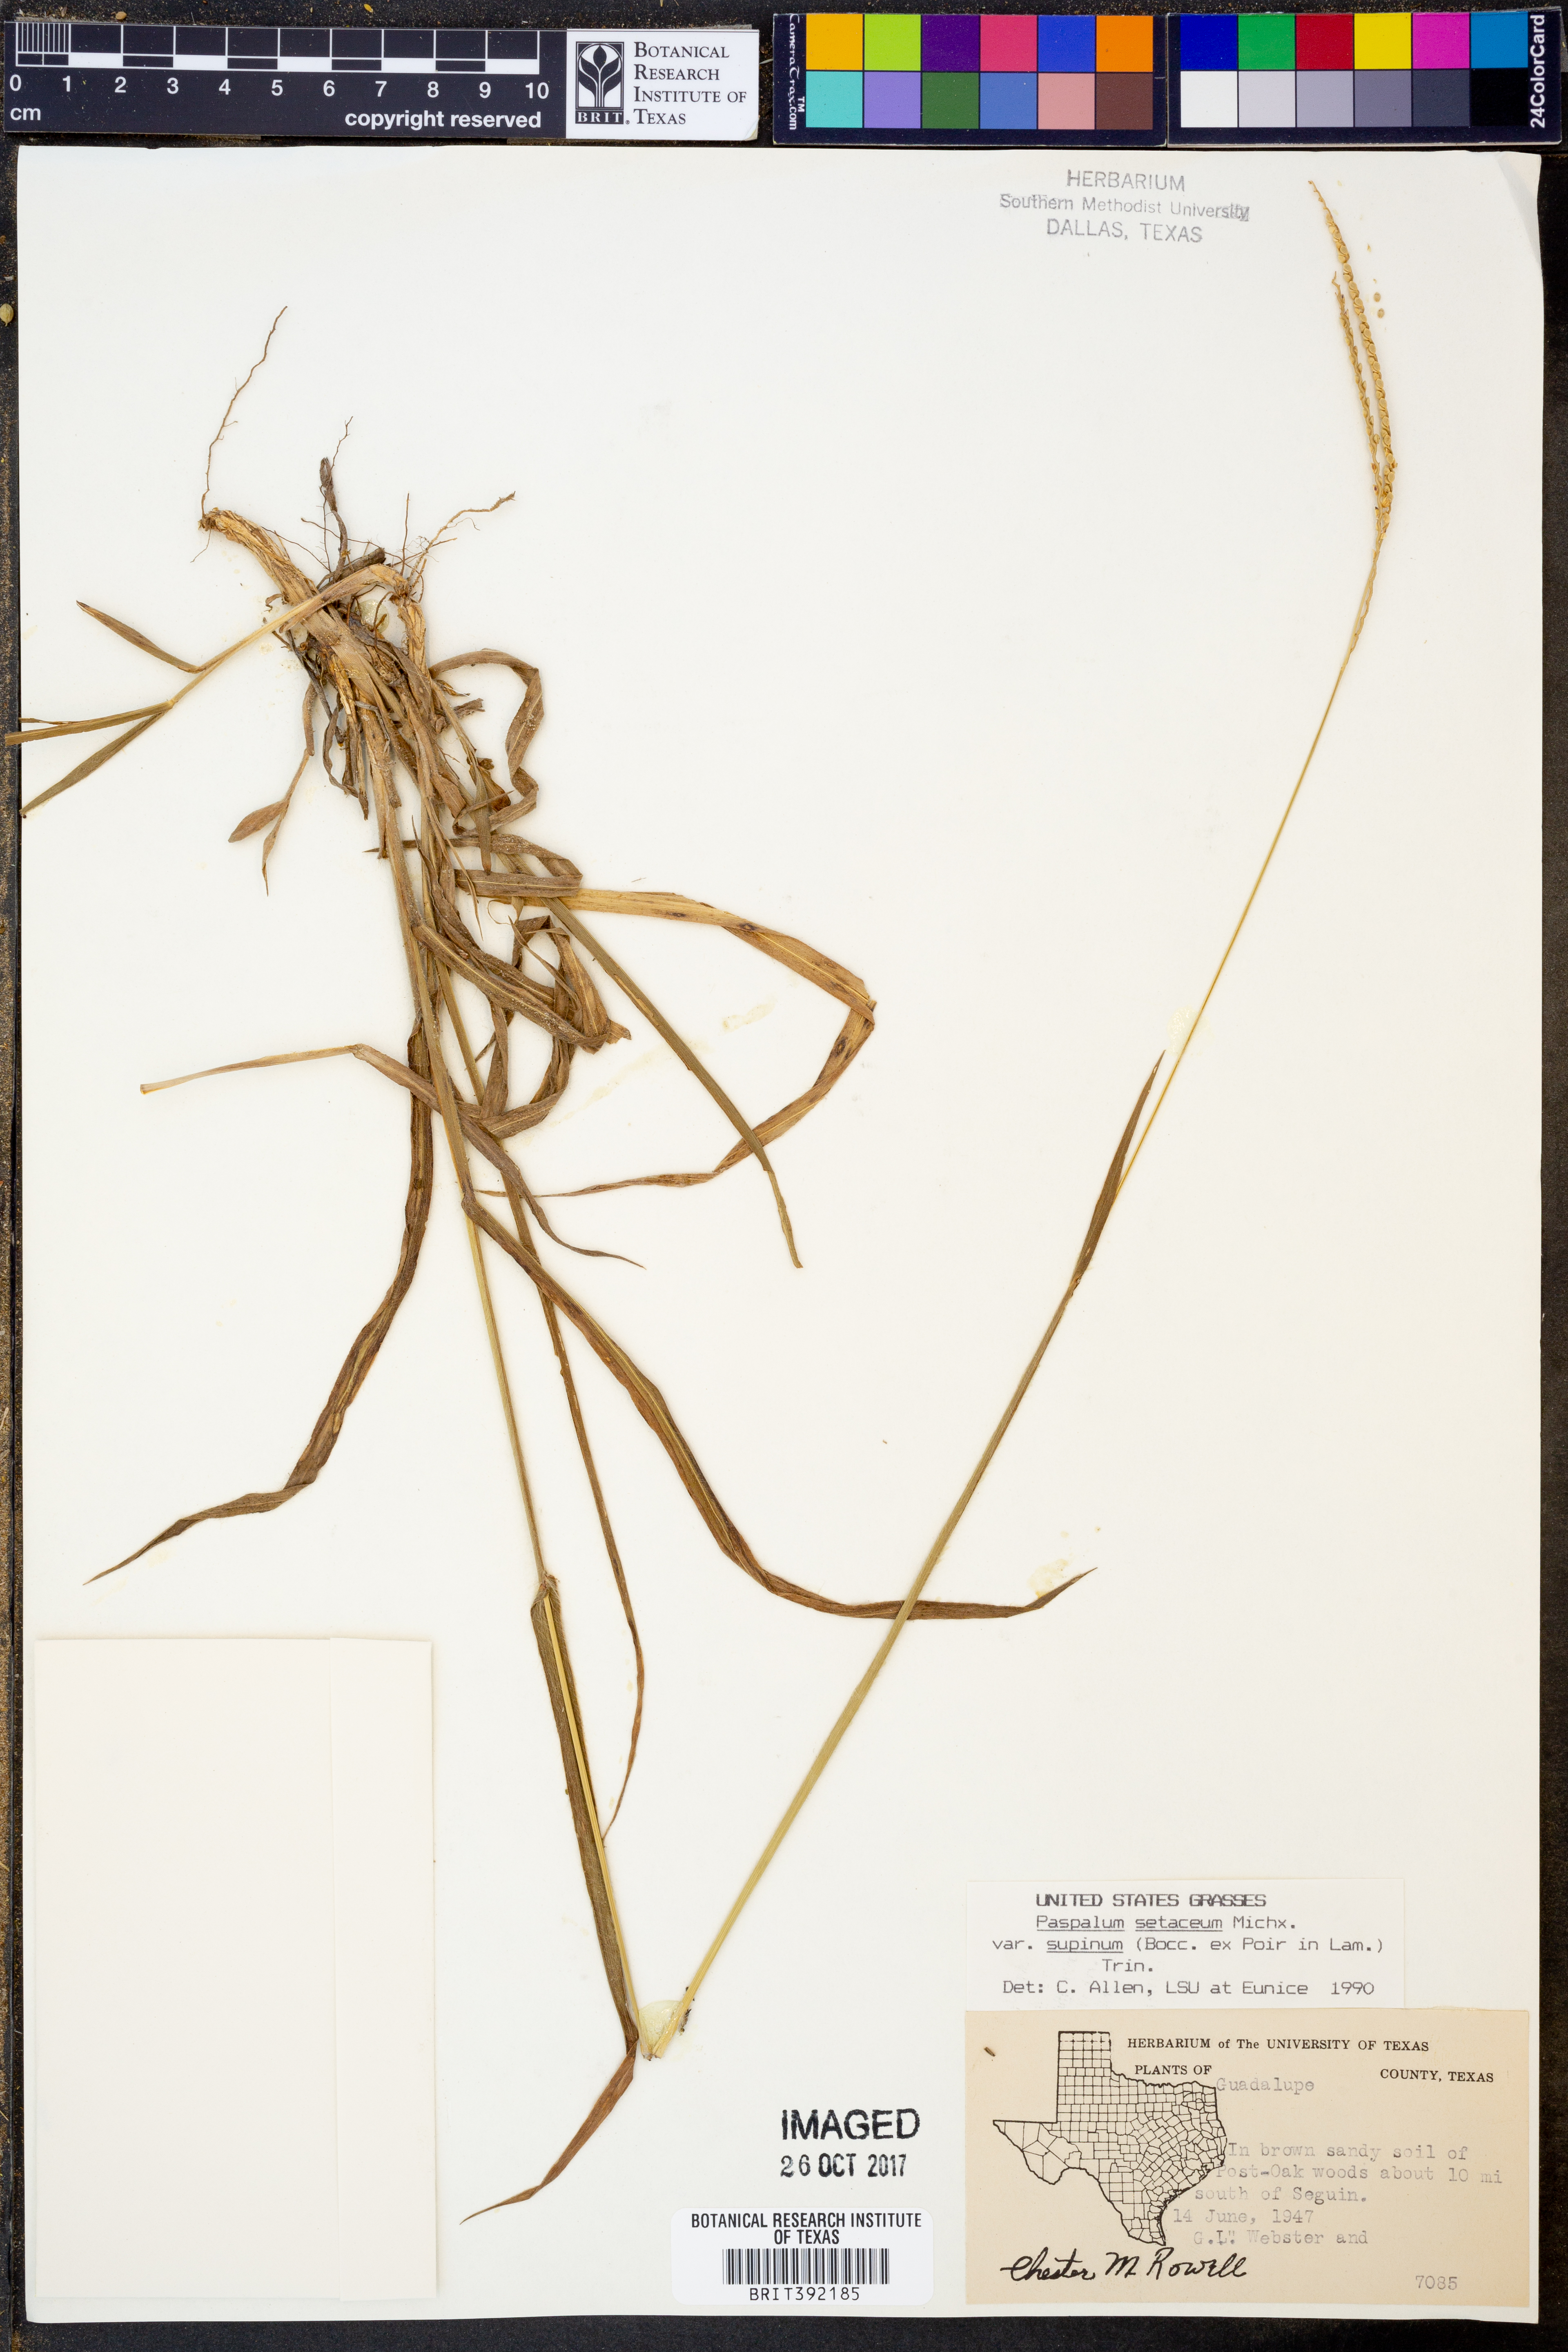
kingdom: Plantae
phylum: Tracheophyta
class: Liliopsida
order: Poales
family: Poaceae
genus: Paspalum
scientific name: Paspalum setaceum
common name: Slender paspalum
